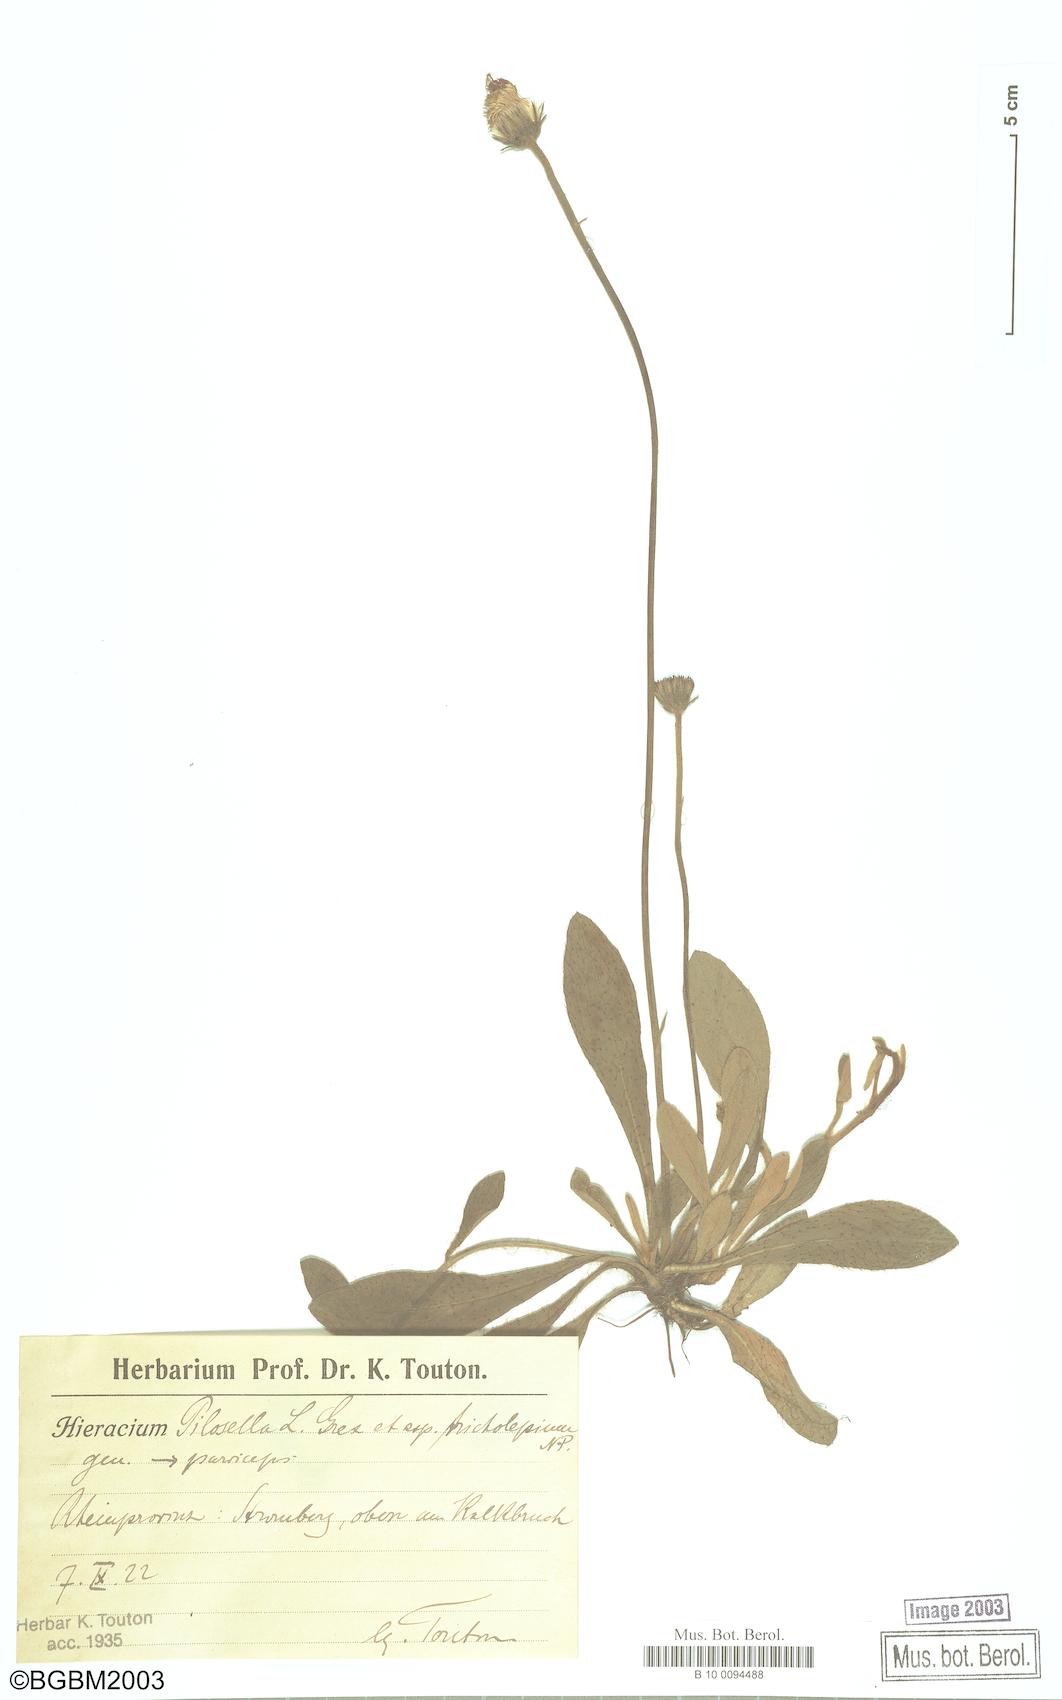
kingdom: Plantae
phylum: Tracheophyta
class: Magnoliopsida
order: Asterales
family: Asteraceae
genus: Pilosella
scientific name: Pilosella officinarum
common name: Mouse-ear hawkweed
